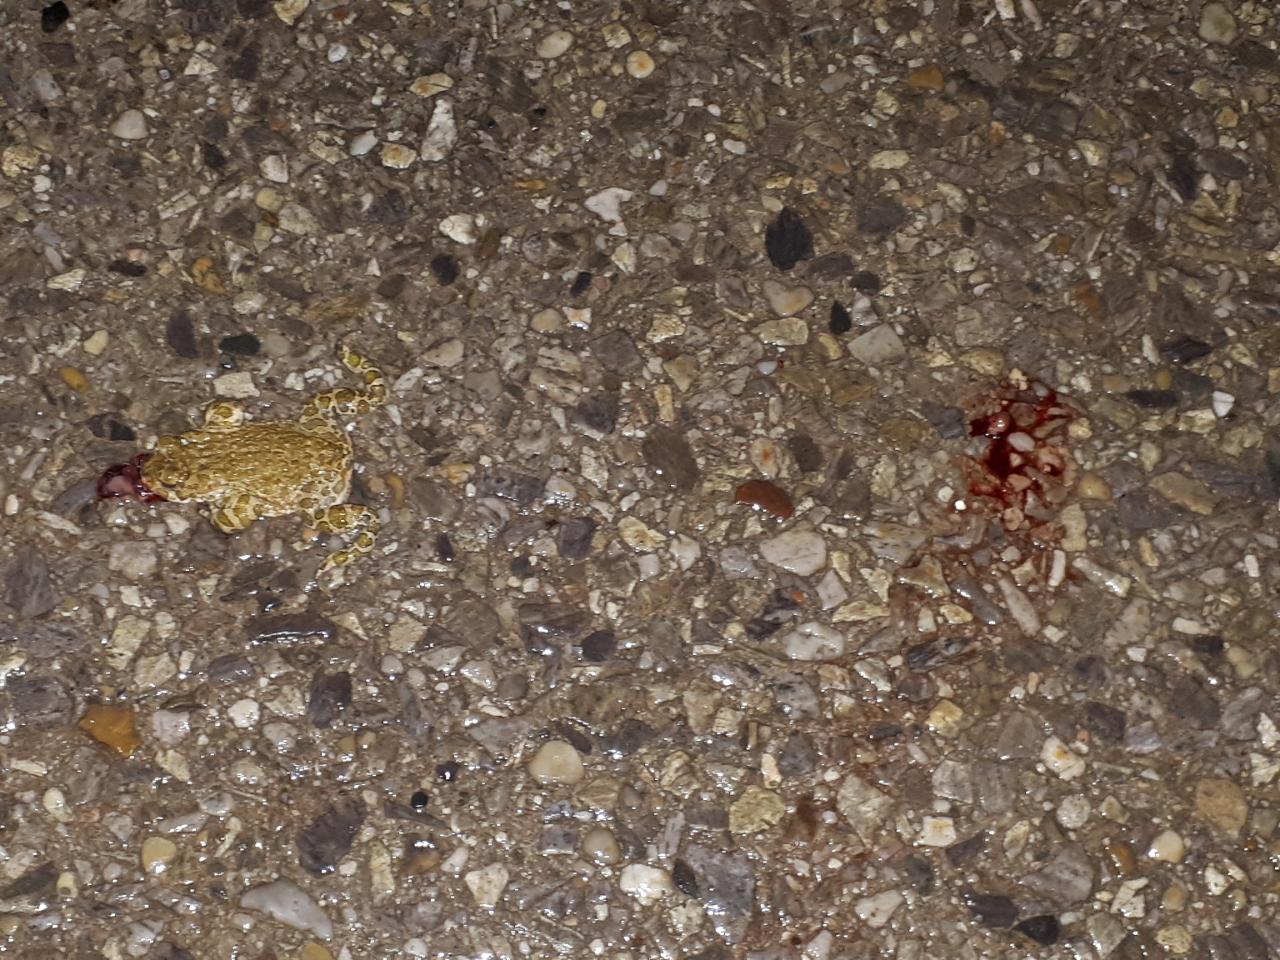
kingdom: Animalia
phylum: Chordata
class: Amphibia
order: Anura
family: Bufonidae
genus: Bufotes
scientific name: Bufotes viridis
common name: European green toad
